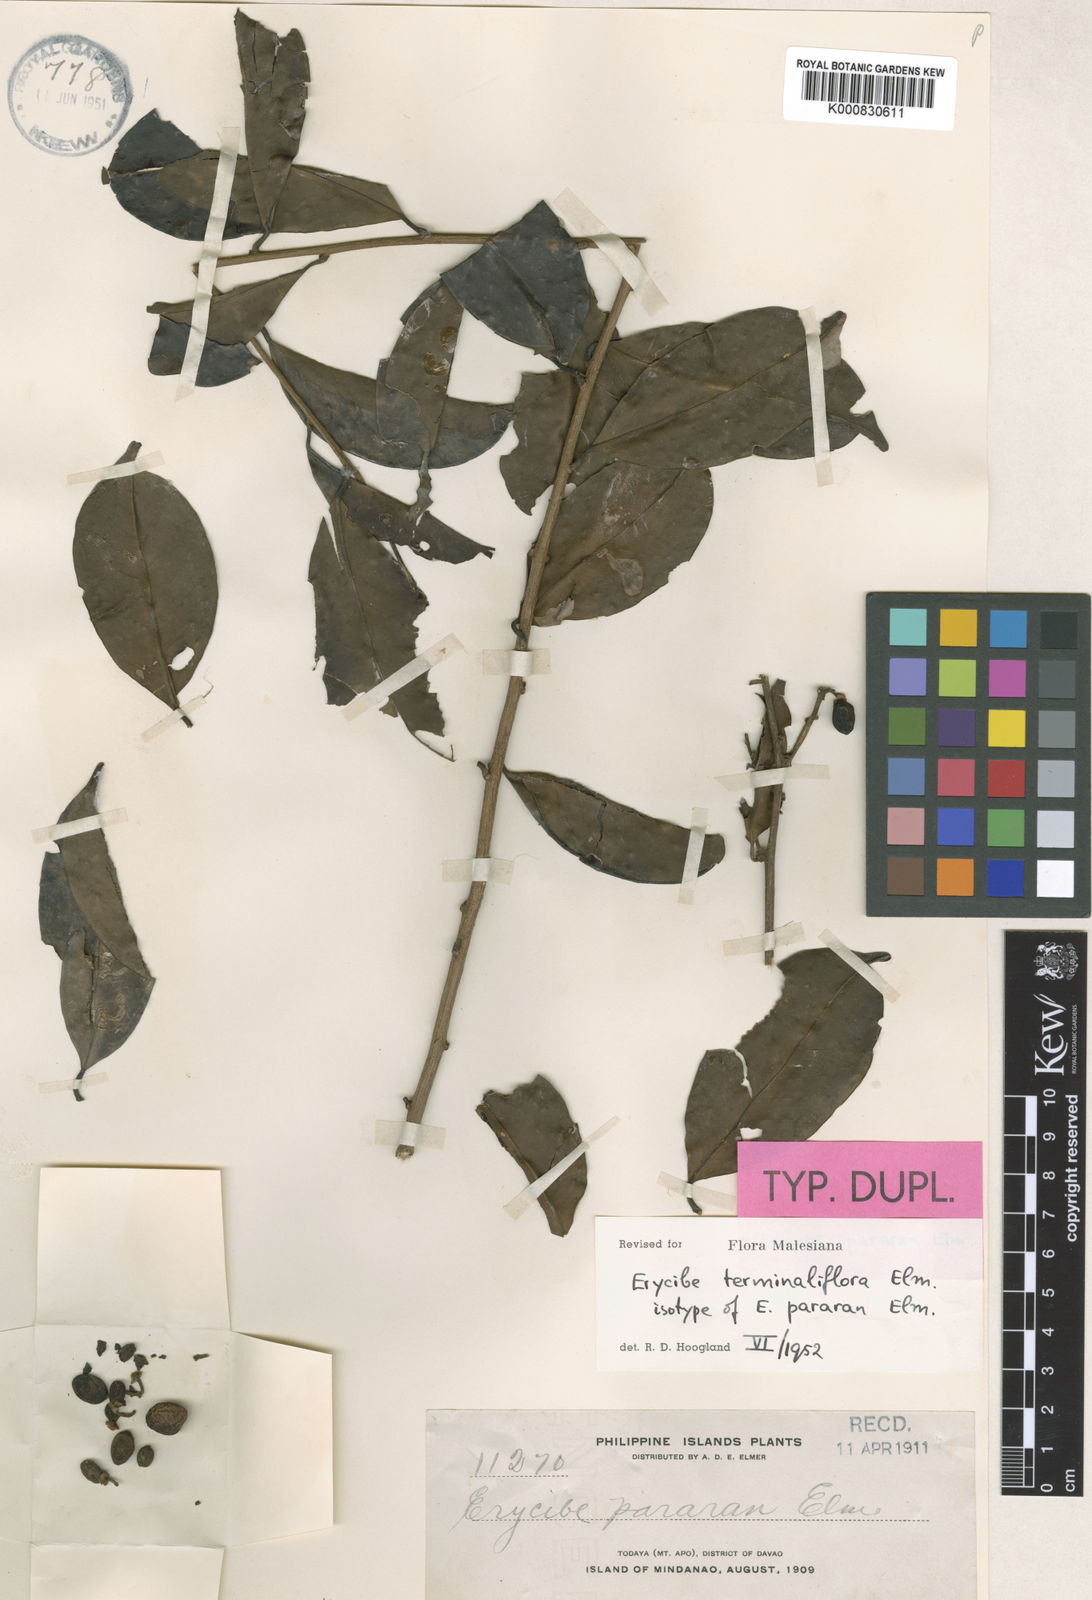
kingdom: Plantae
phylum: Tracheophyta
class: Magnoliopsida
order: Solanales
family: Convolvulaceae
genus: Erycibe
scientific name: Erycibe terminaliflora
